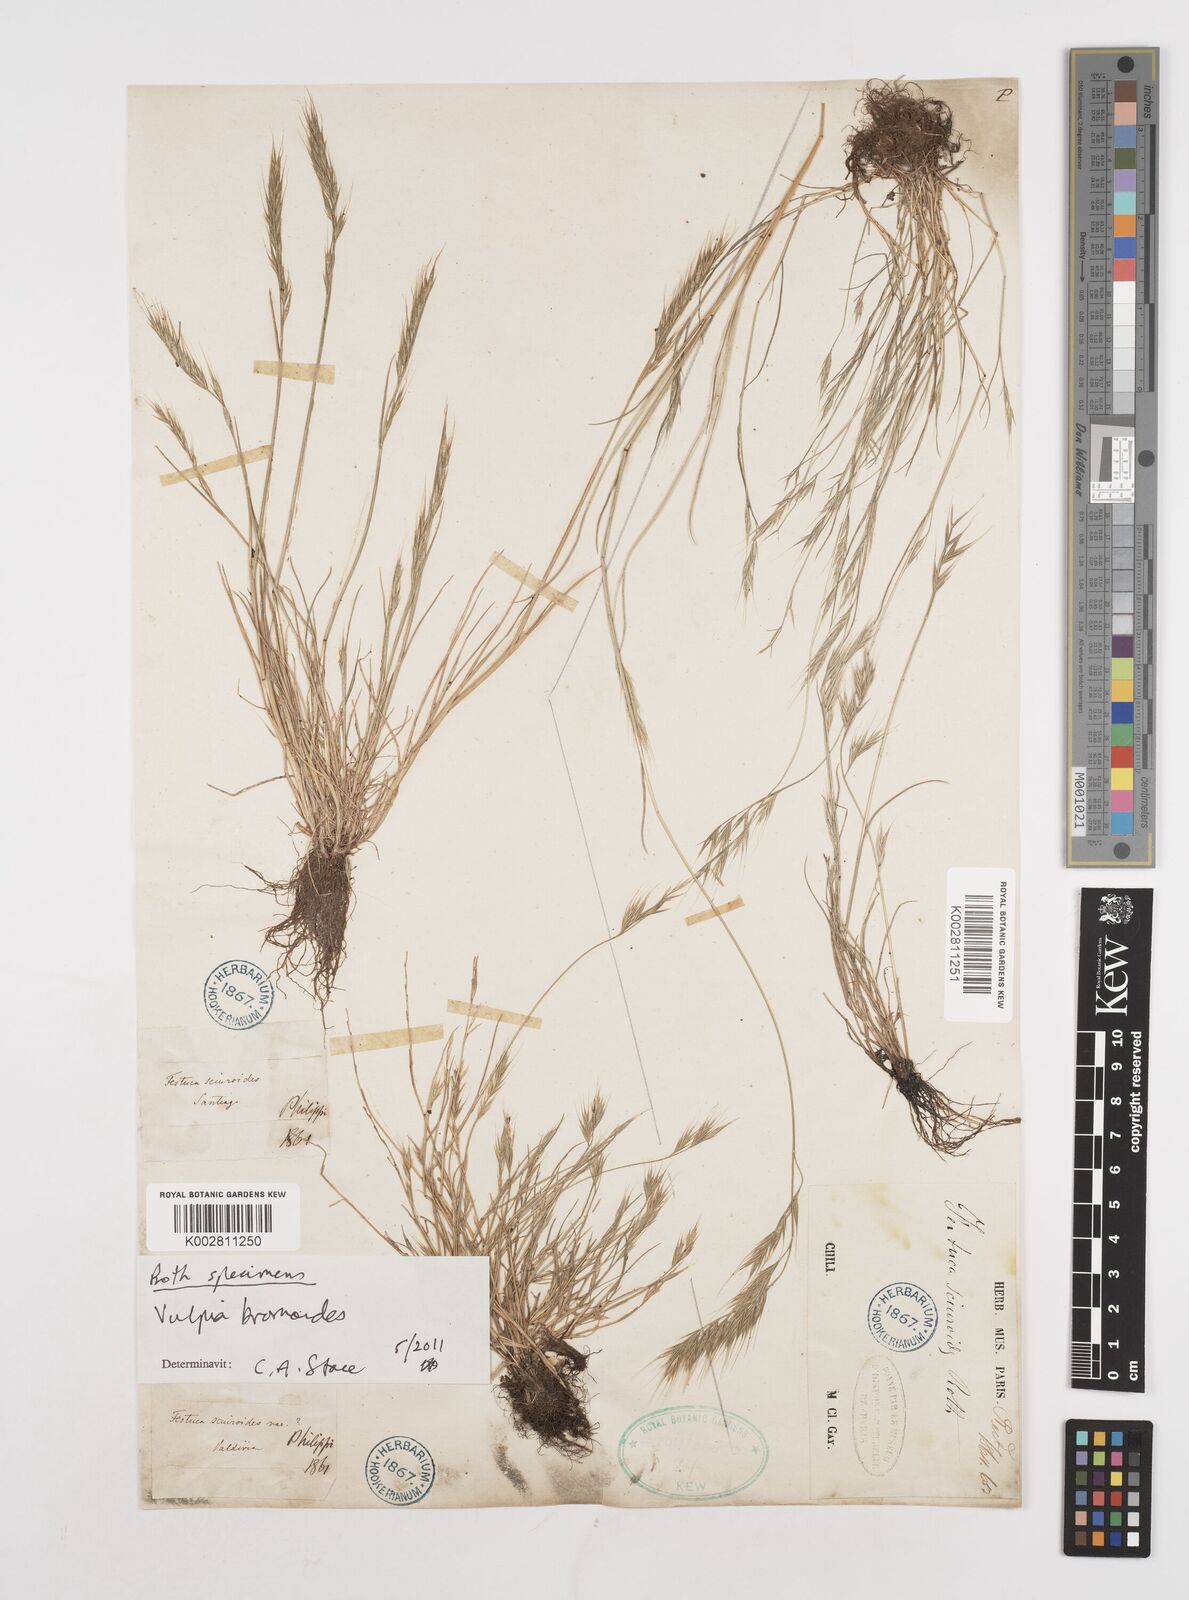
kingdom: Plantae
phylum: Tracheophyta
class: Liliopsida
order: Poales
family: Poaceae
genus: Festuca
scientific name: Festuca bromoides
